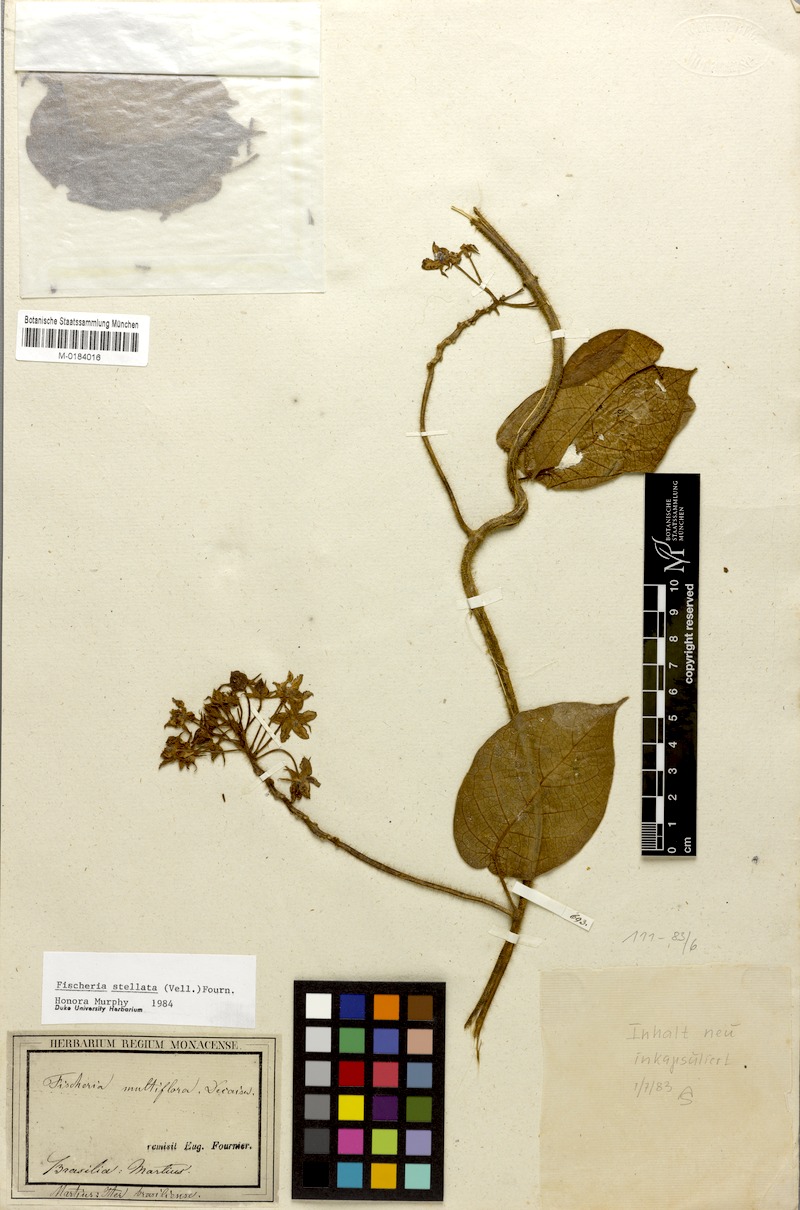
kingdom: Plantae
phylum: Tracheophyta
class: Magnoliopsida
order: Gentianales
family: Apocynaceae
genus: Fischeria
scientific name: Fischeria stellata
